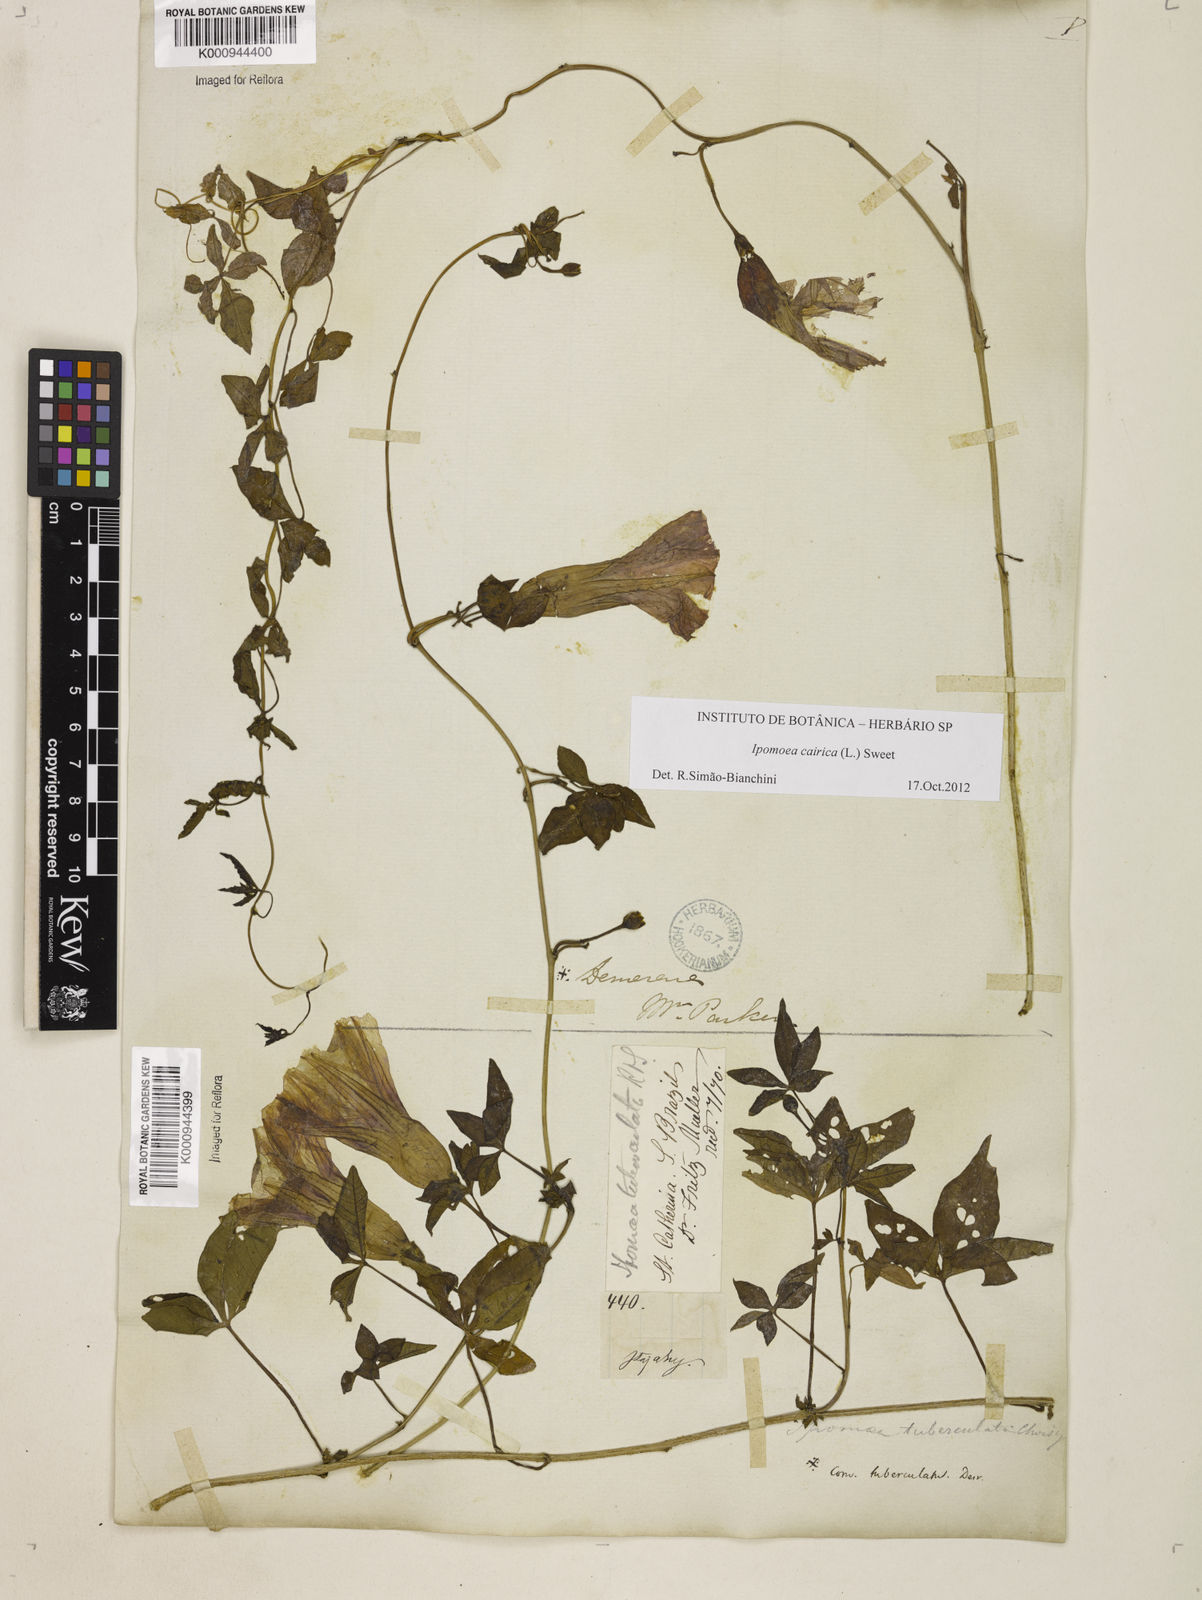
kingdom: Plantae
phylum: Tracheophyta
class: Magnoliopsida
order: Solanales
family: Convolvulaceae
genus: Ipomoea
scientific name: Ipomoea cairica
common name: Mile a minute vine
